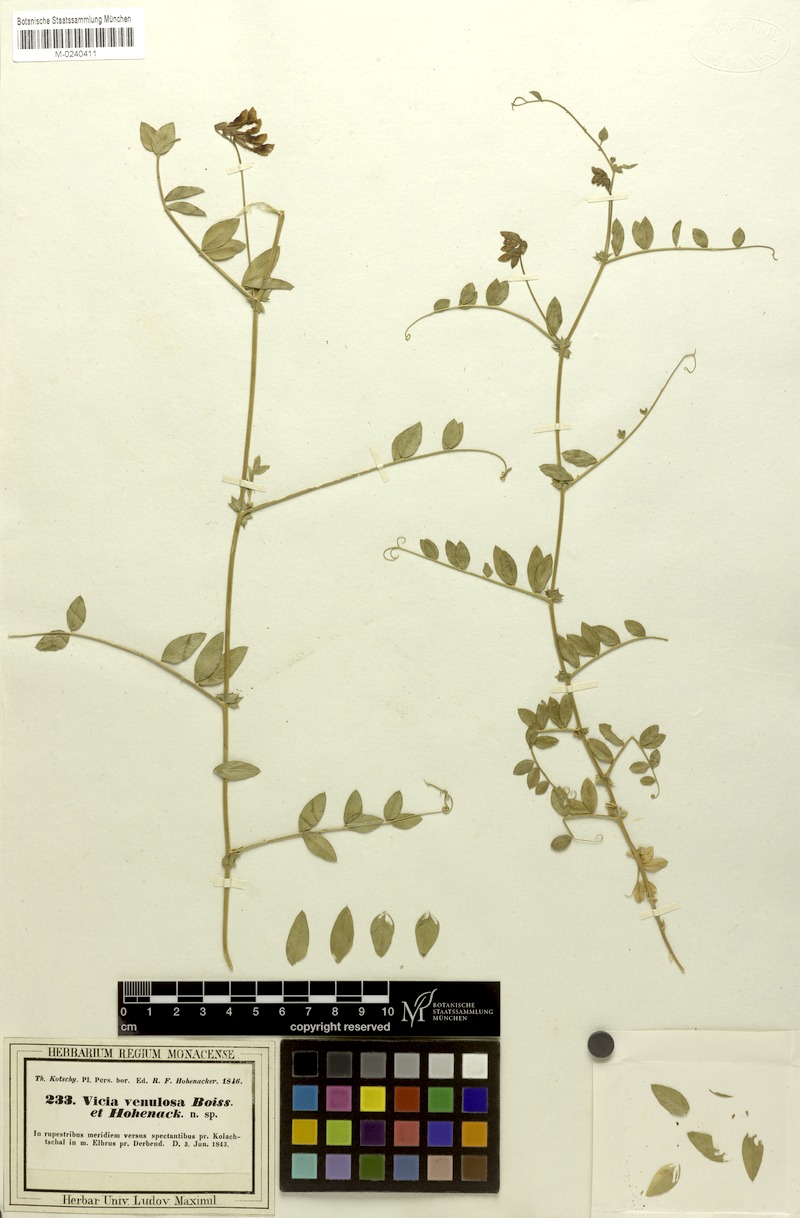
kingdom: Plantae
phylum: Tracheophyta
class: Magnoliopsida
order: Fabales
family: Fabaceae
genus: Vicia
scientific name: Vicia venulosa
